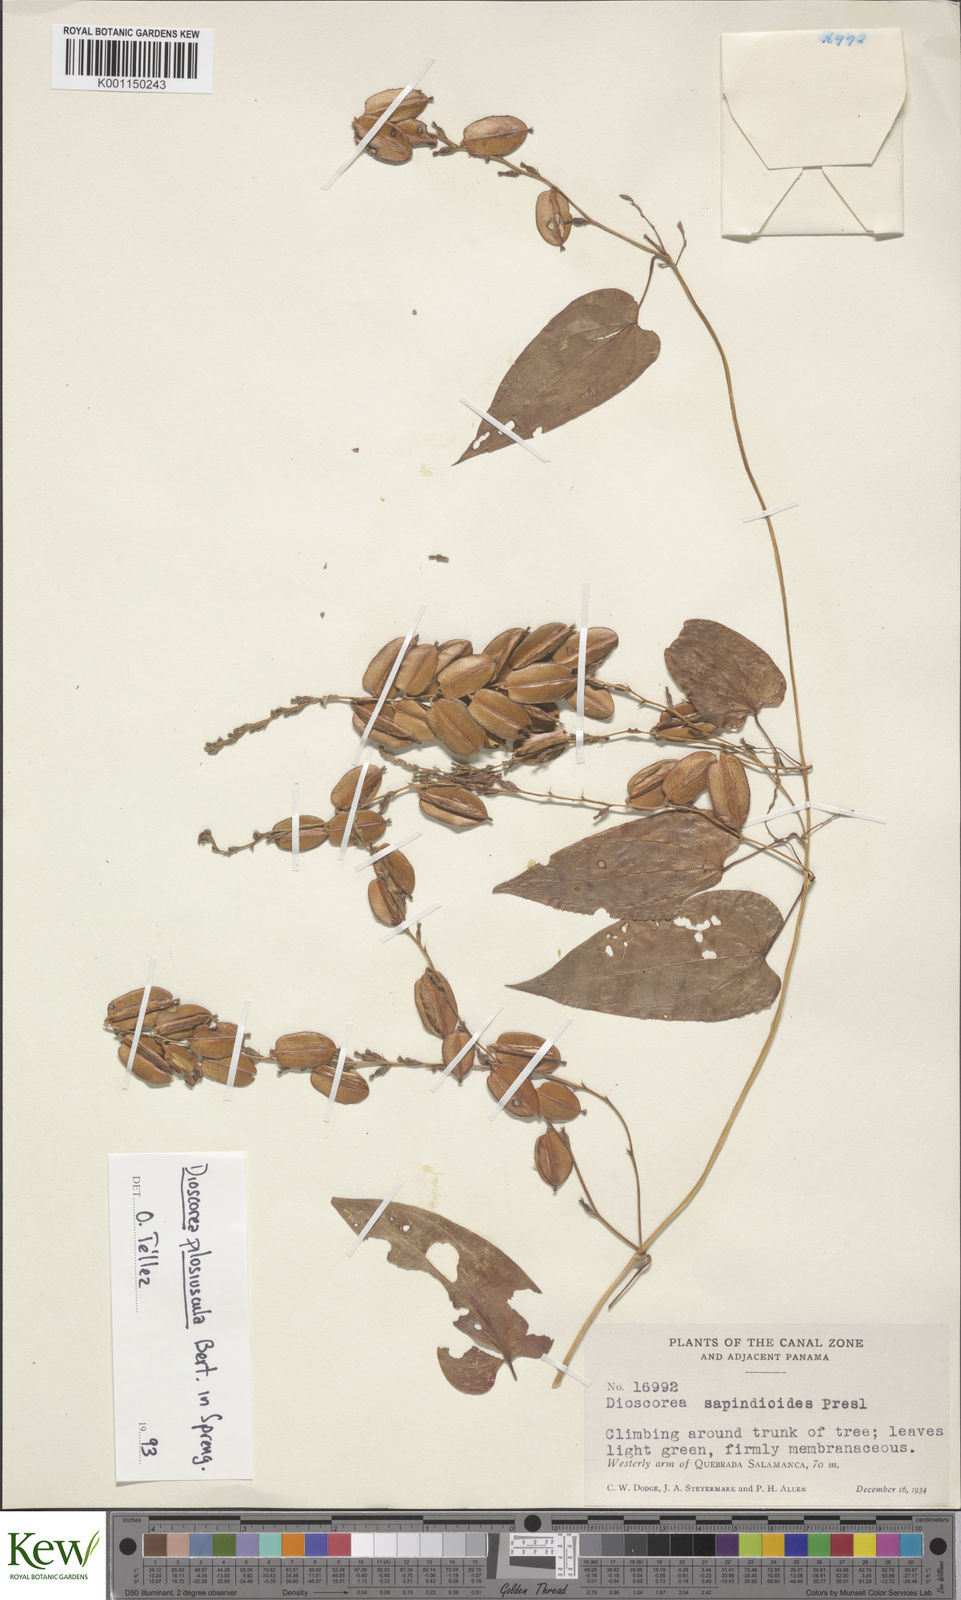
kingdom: Plantae
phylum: Tracheophyta
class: Liliopsida
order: Dioscoreales
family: Dioscoreaceae
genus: Dioscorea
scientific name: Dioscorea pilosiuscula
